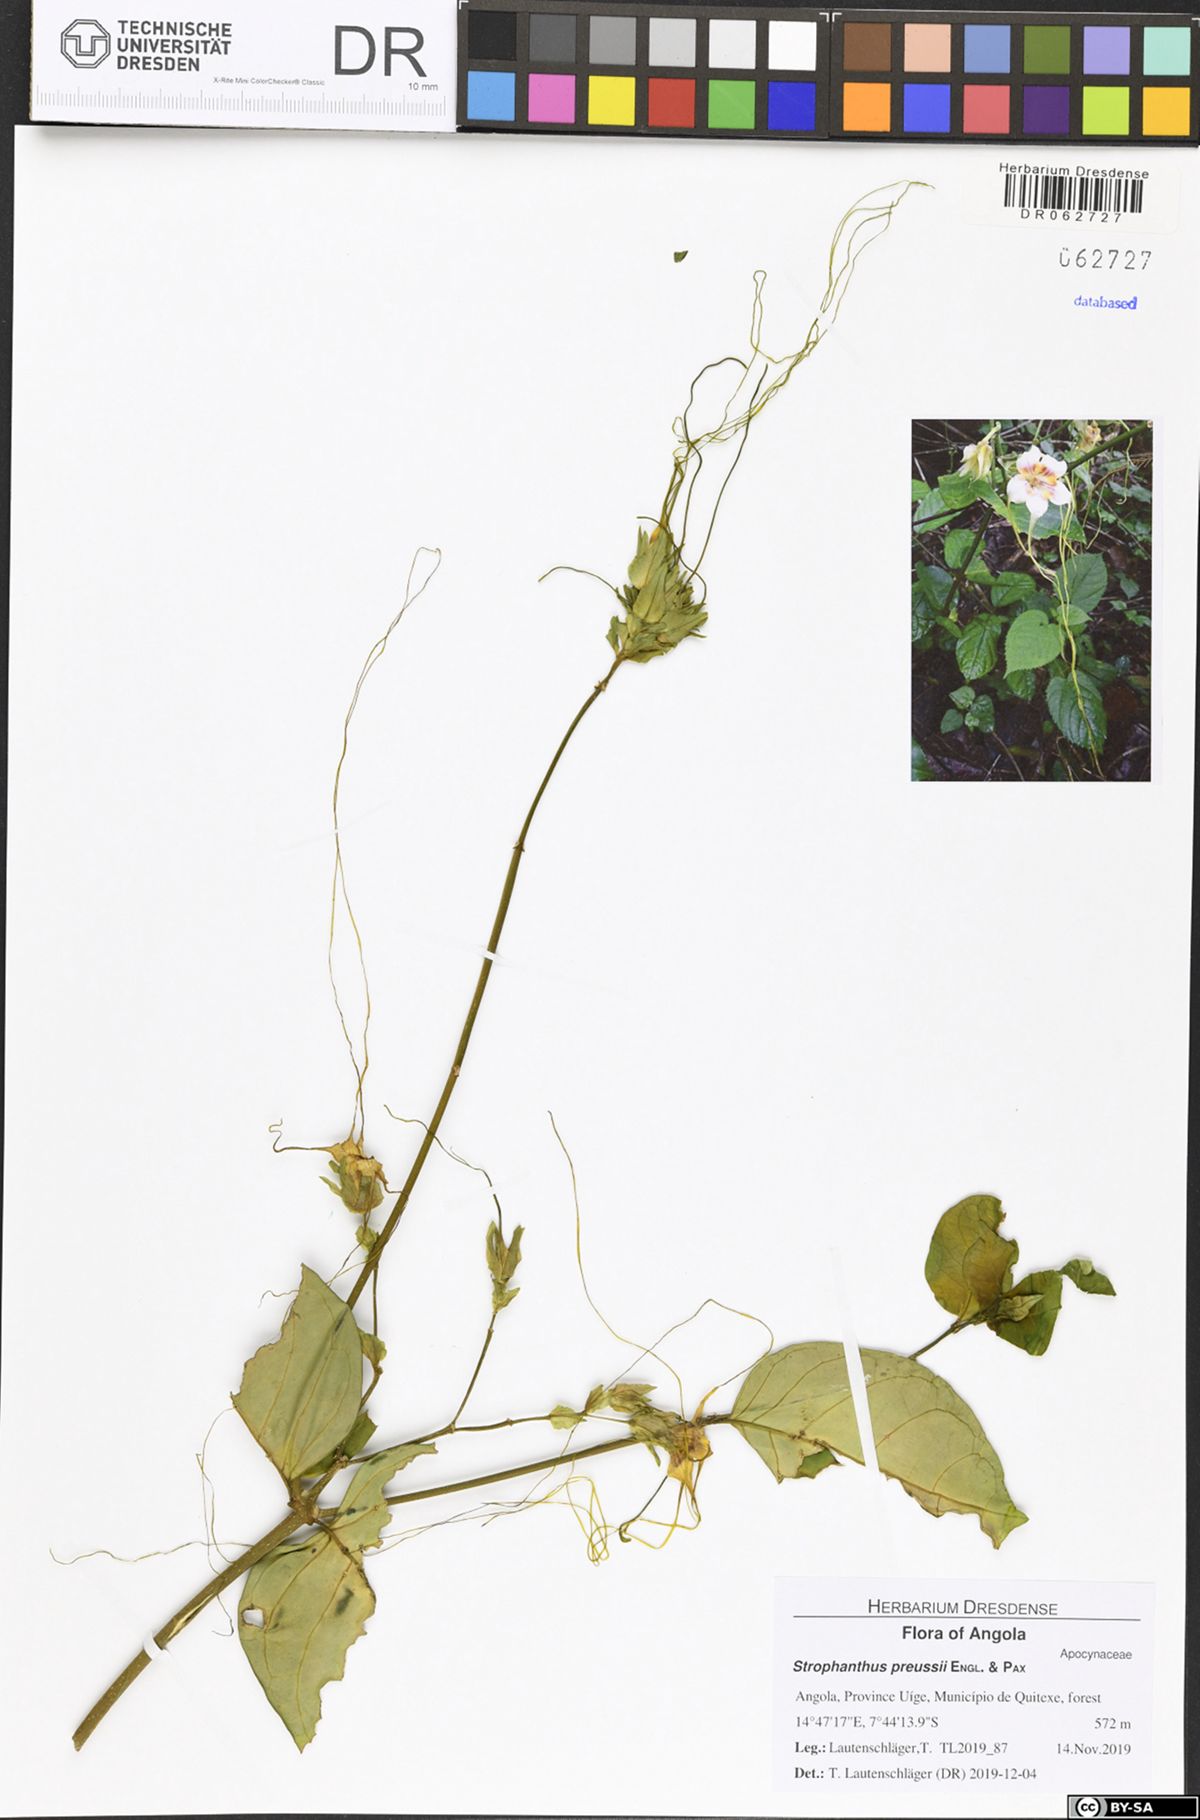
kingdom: Plantae
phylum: Tracheophyta
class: Magnoliopsida
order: Gentianales
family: Apocynaceae
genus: Strophanthus
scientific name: Strophanthus preussii
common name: Medisa-flower
